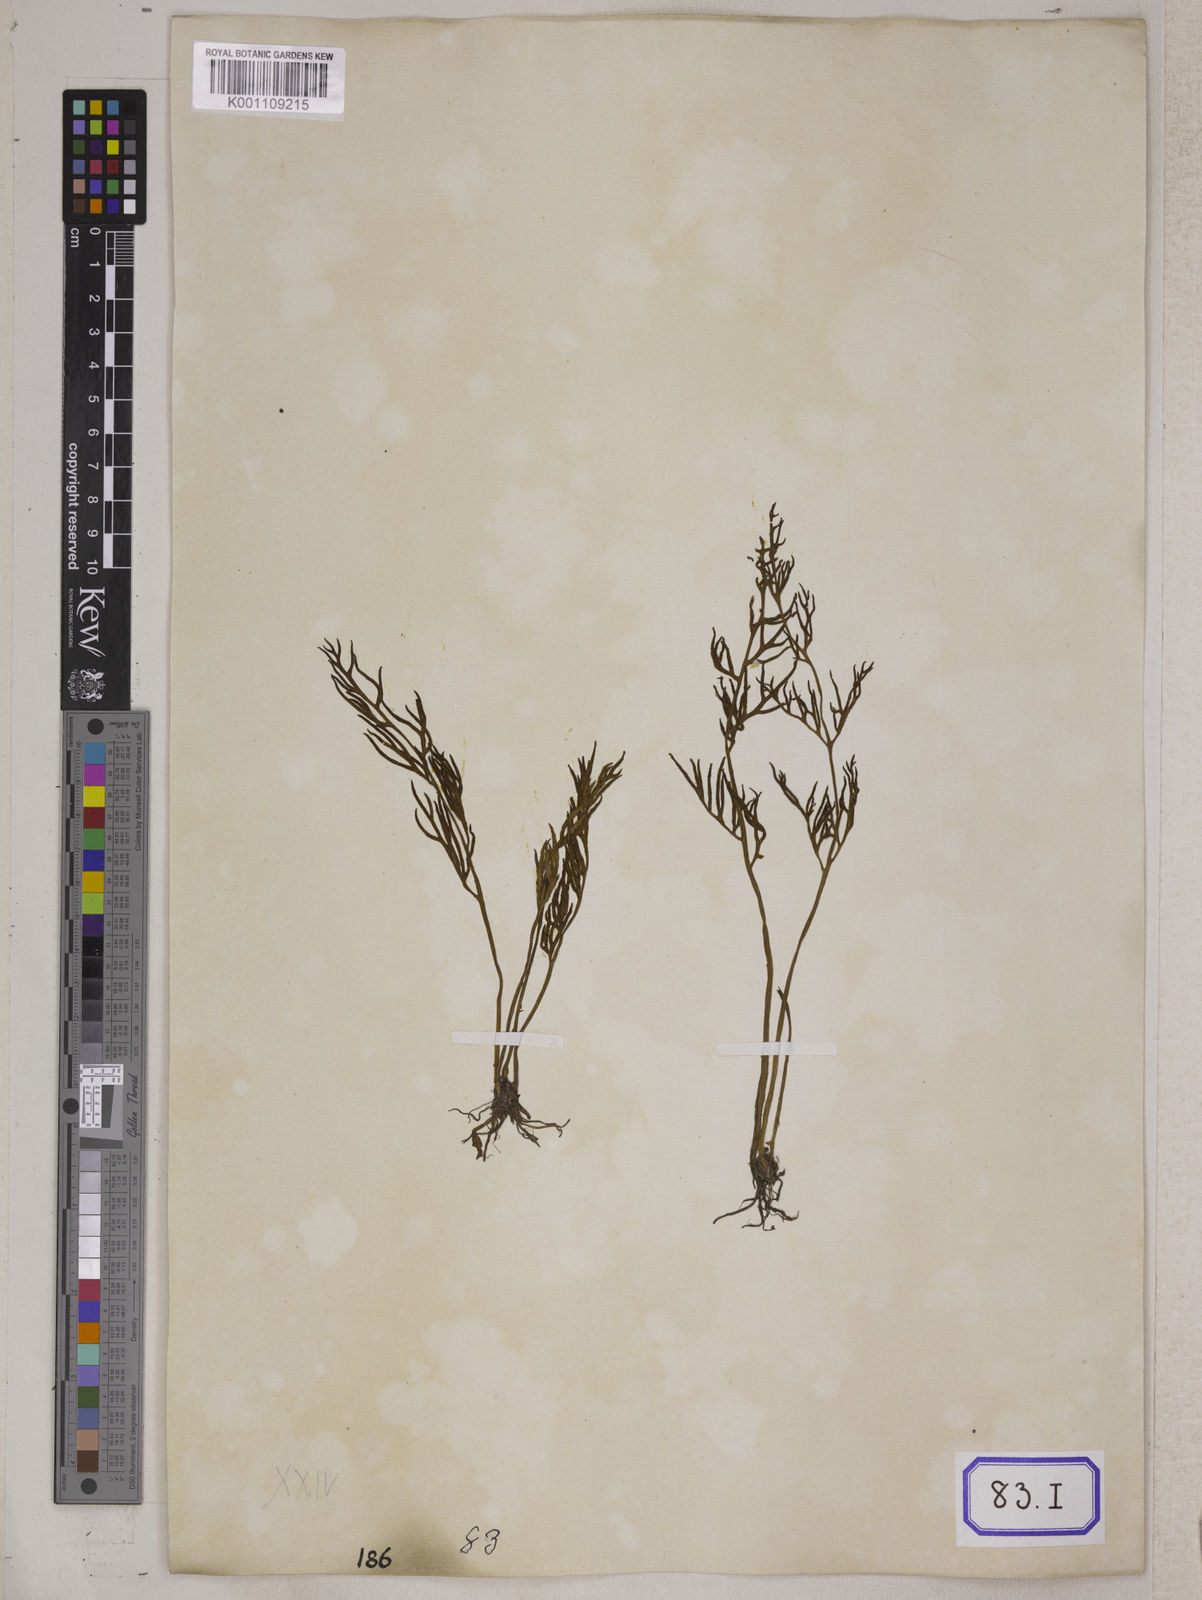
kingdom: Plantae
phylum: Tracheophyta
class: Polypodiopsida
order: Polypodiales
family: Pteridaceae
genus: Ceratopteris
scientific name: Ceratopteris thalictroides
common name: Water fern
